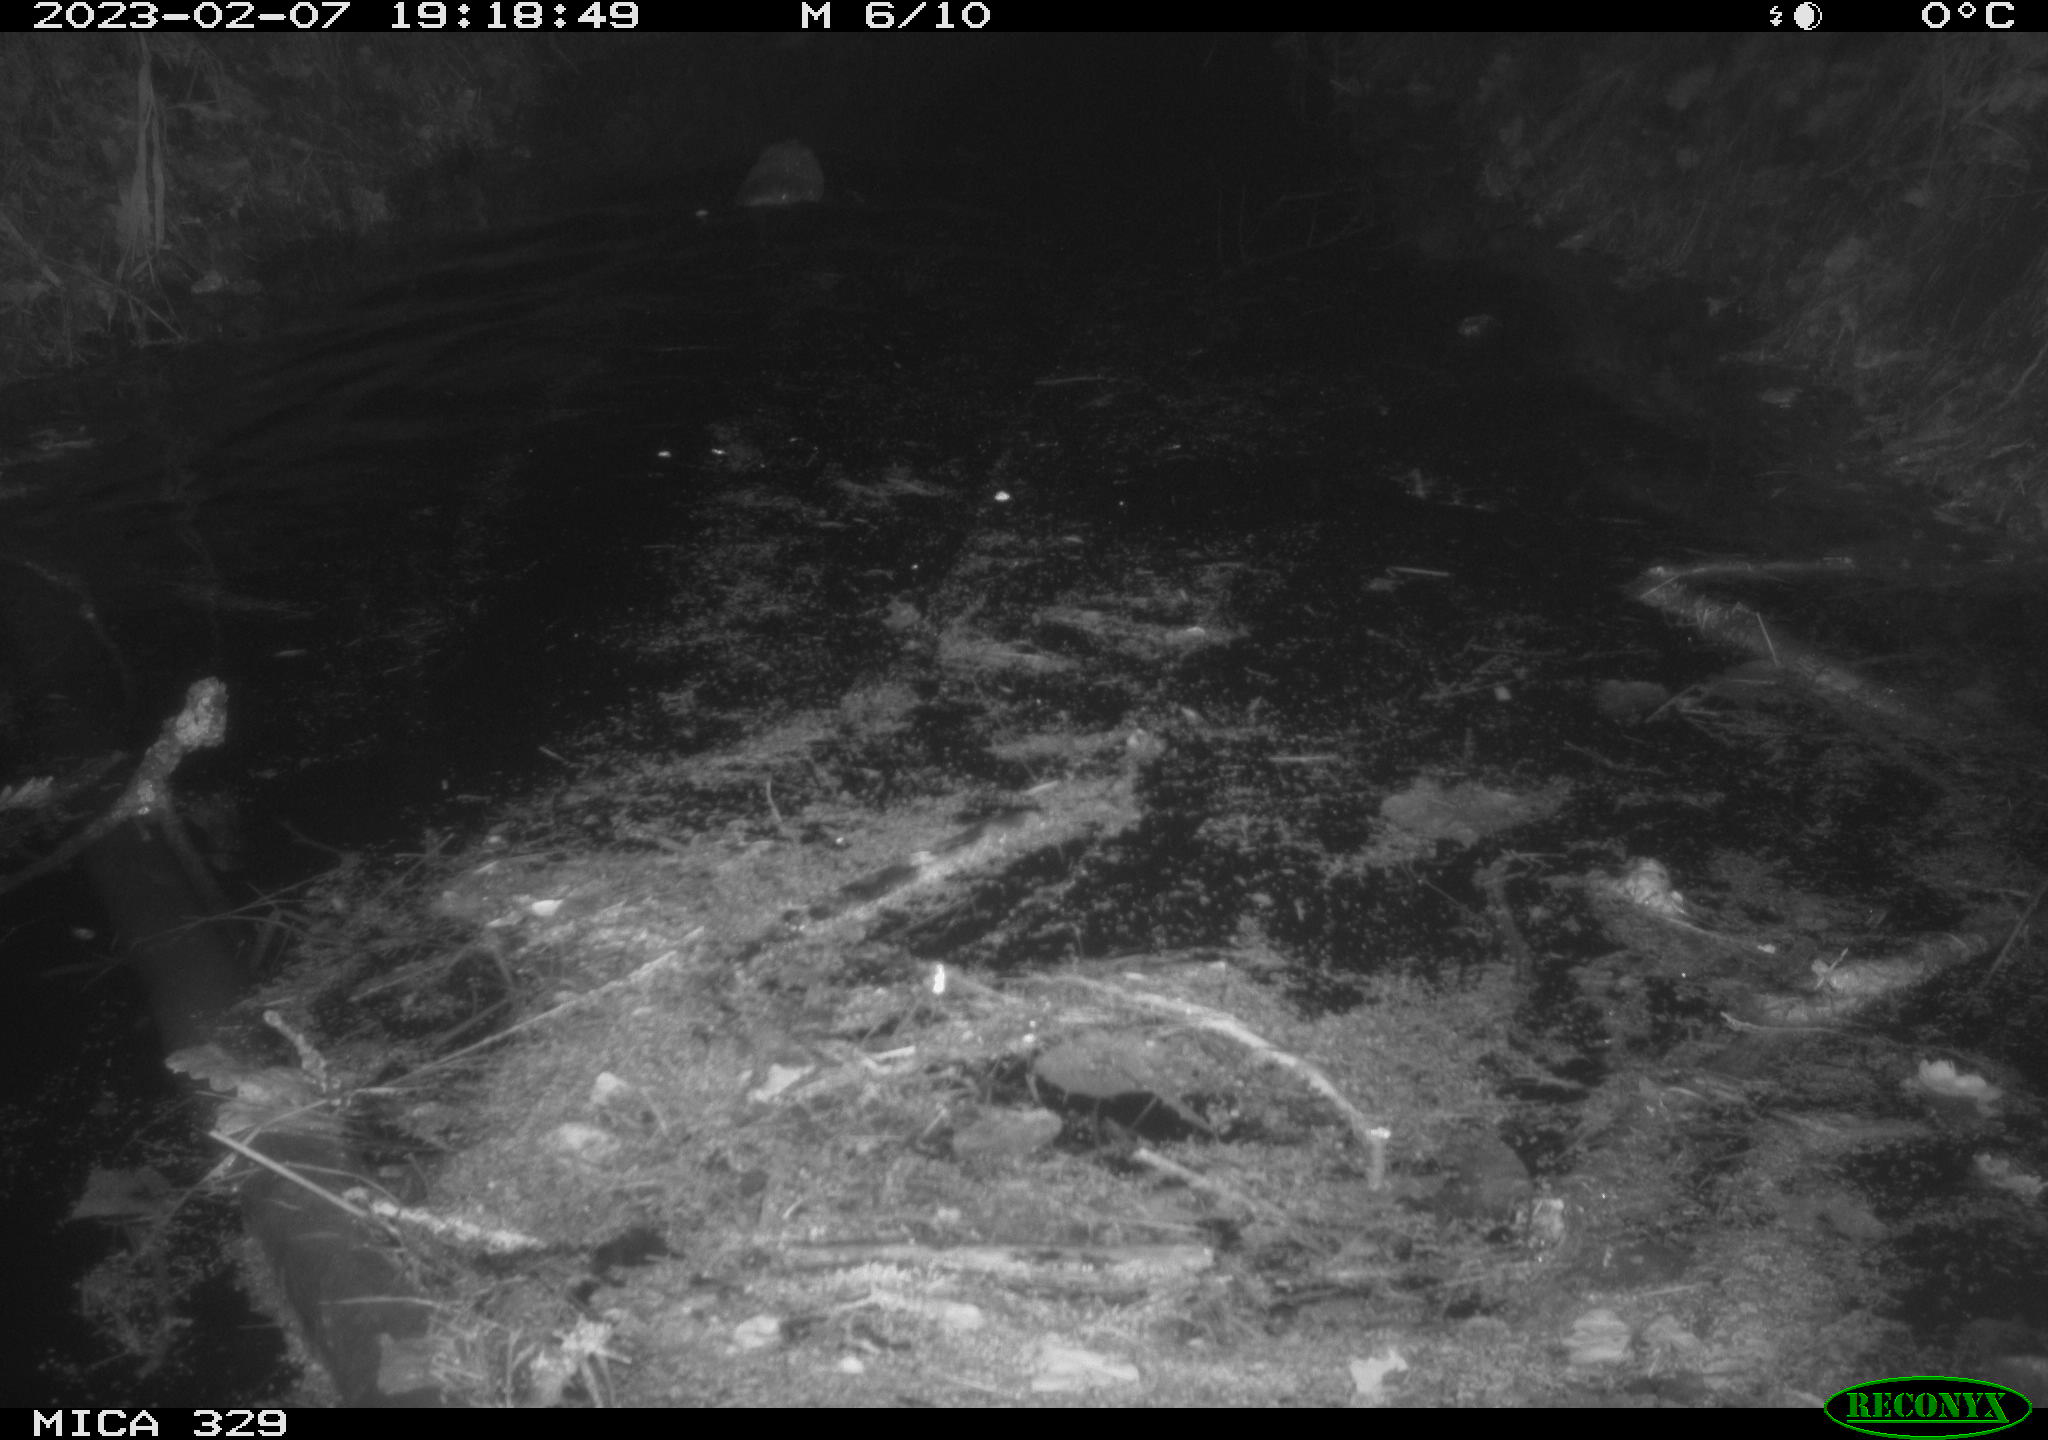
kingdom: Animalia
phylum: Chordata
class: Mammalia
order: Rodentia
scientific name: Rodentia
